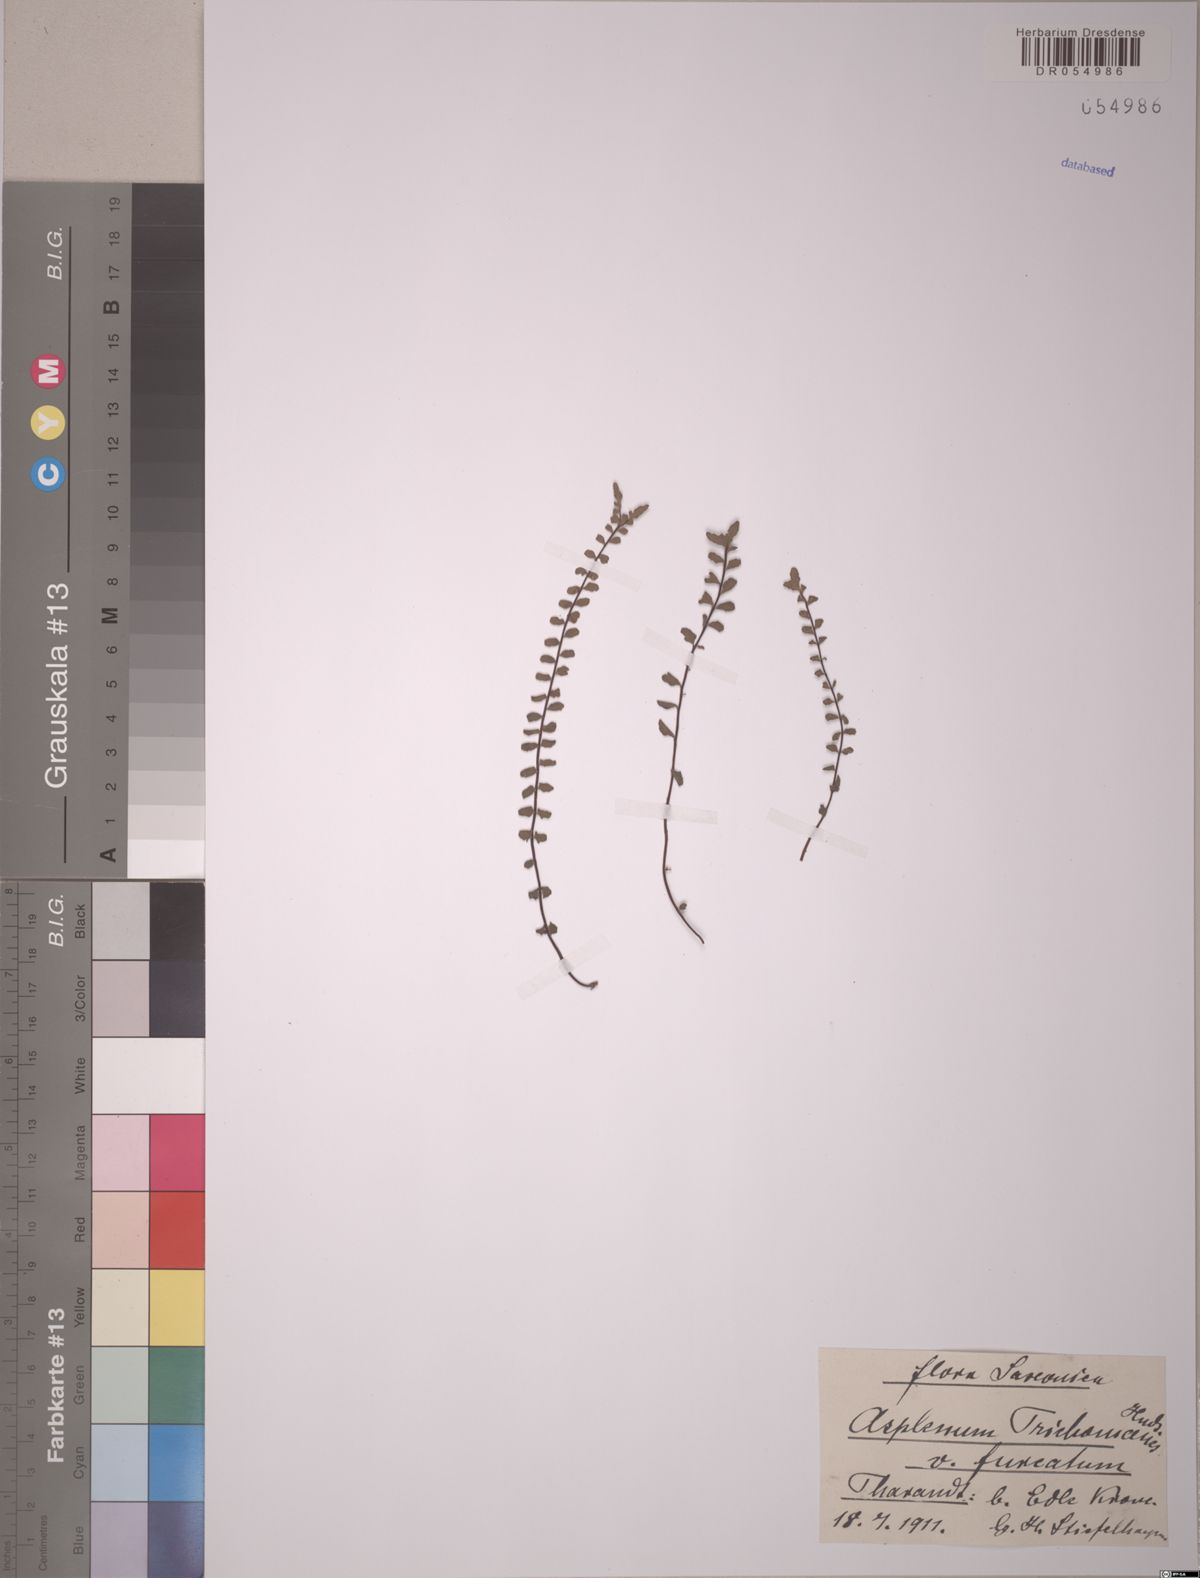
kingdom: Plantae
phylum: Tracheophyta
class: Polypodiopsida
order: Polypodiales
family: Aspleniaceae
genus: Asplenium
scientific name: Asplenium trichomanes
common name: Maidenhair spleenwort
